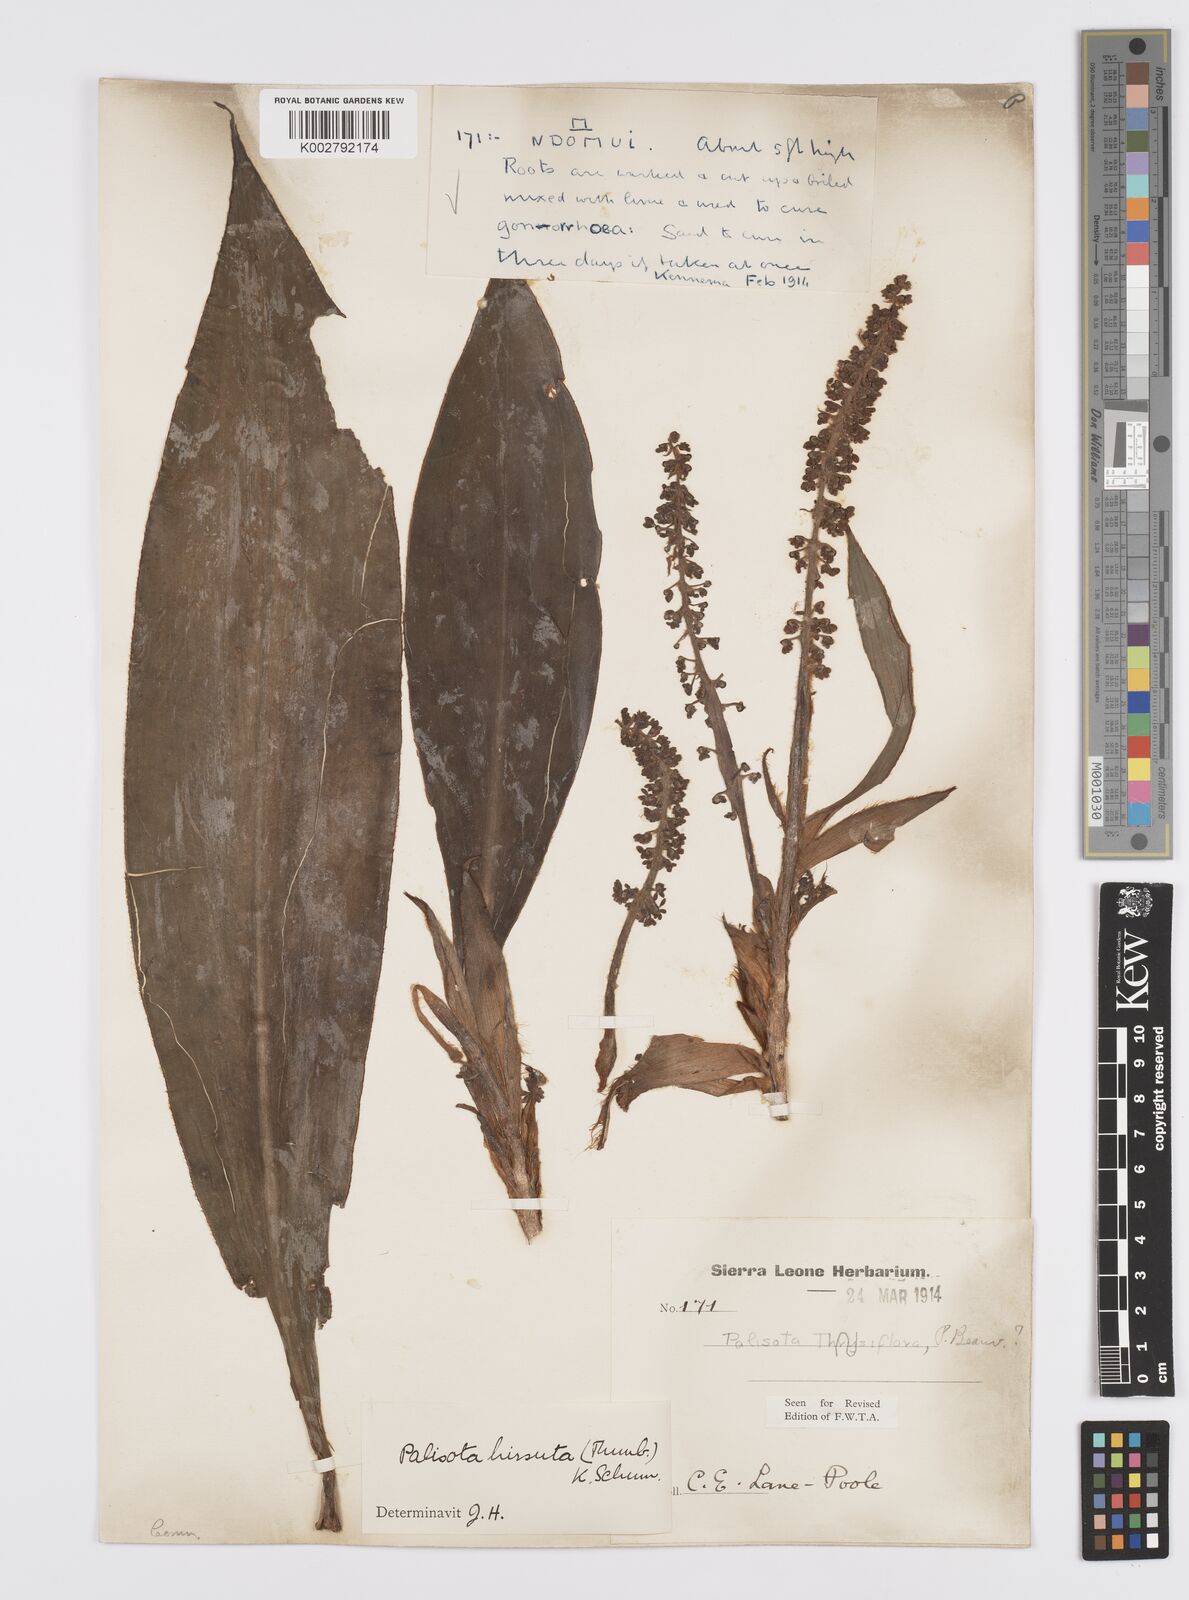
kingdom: Plantae
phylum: Tracheophyta
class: Liliopsida
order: Commelinales
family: Commelinaceae
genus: Palisota
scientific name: Palisota hirsuta
